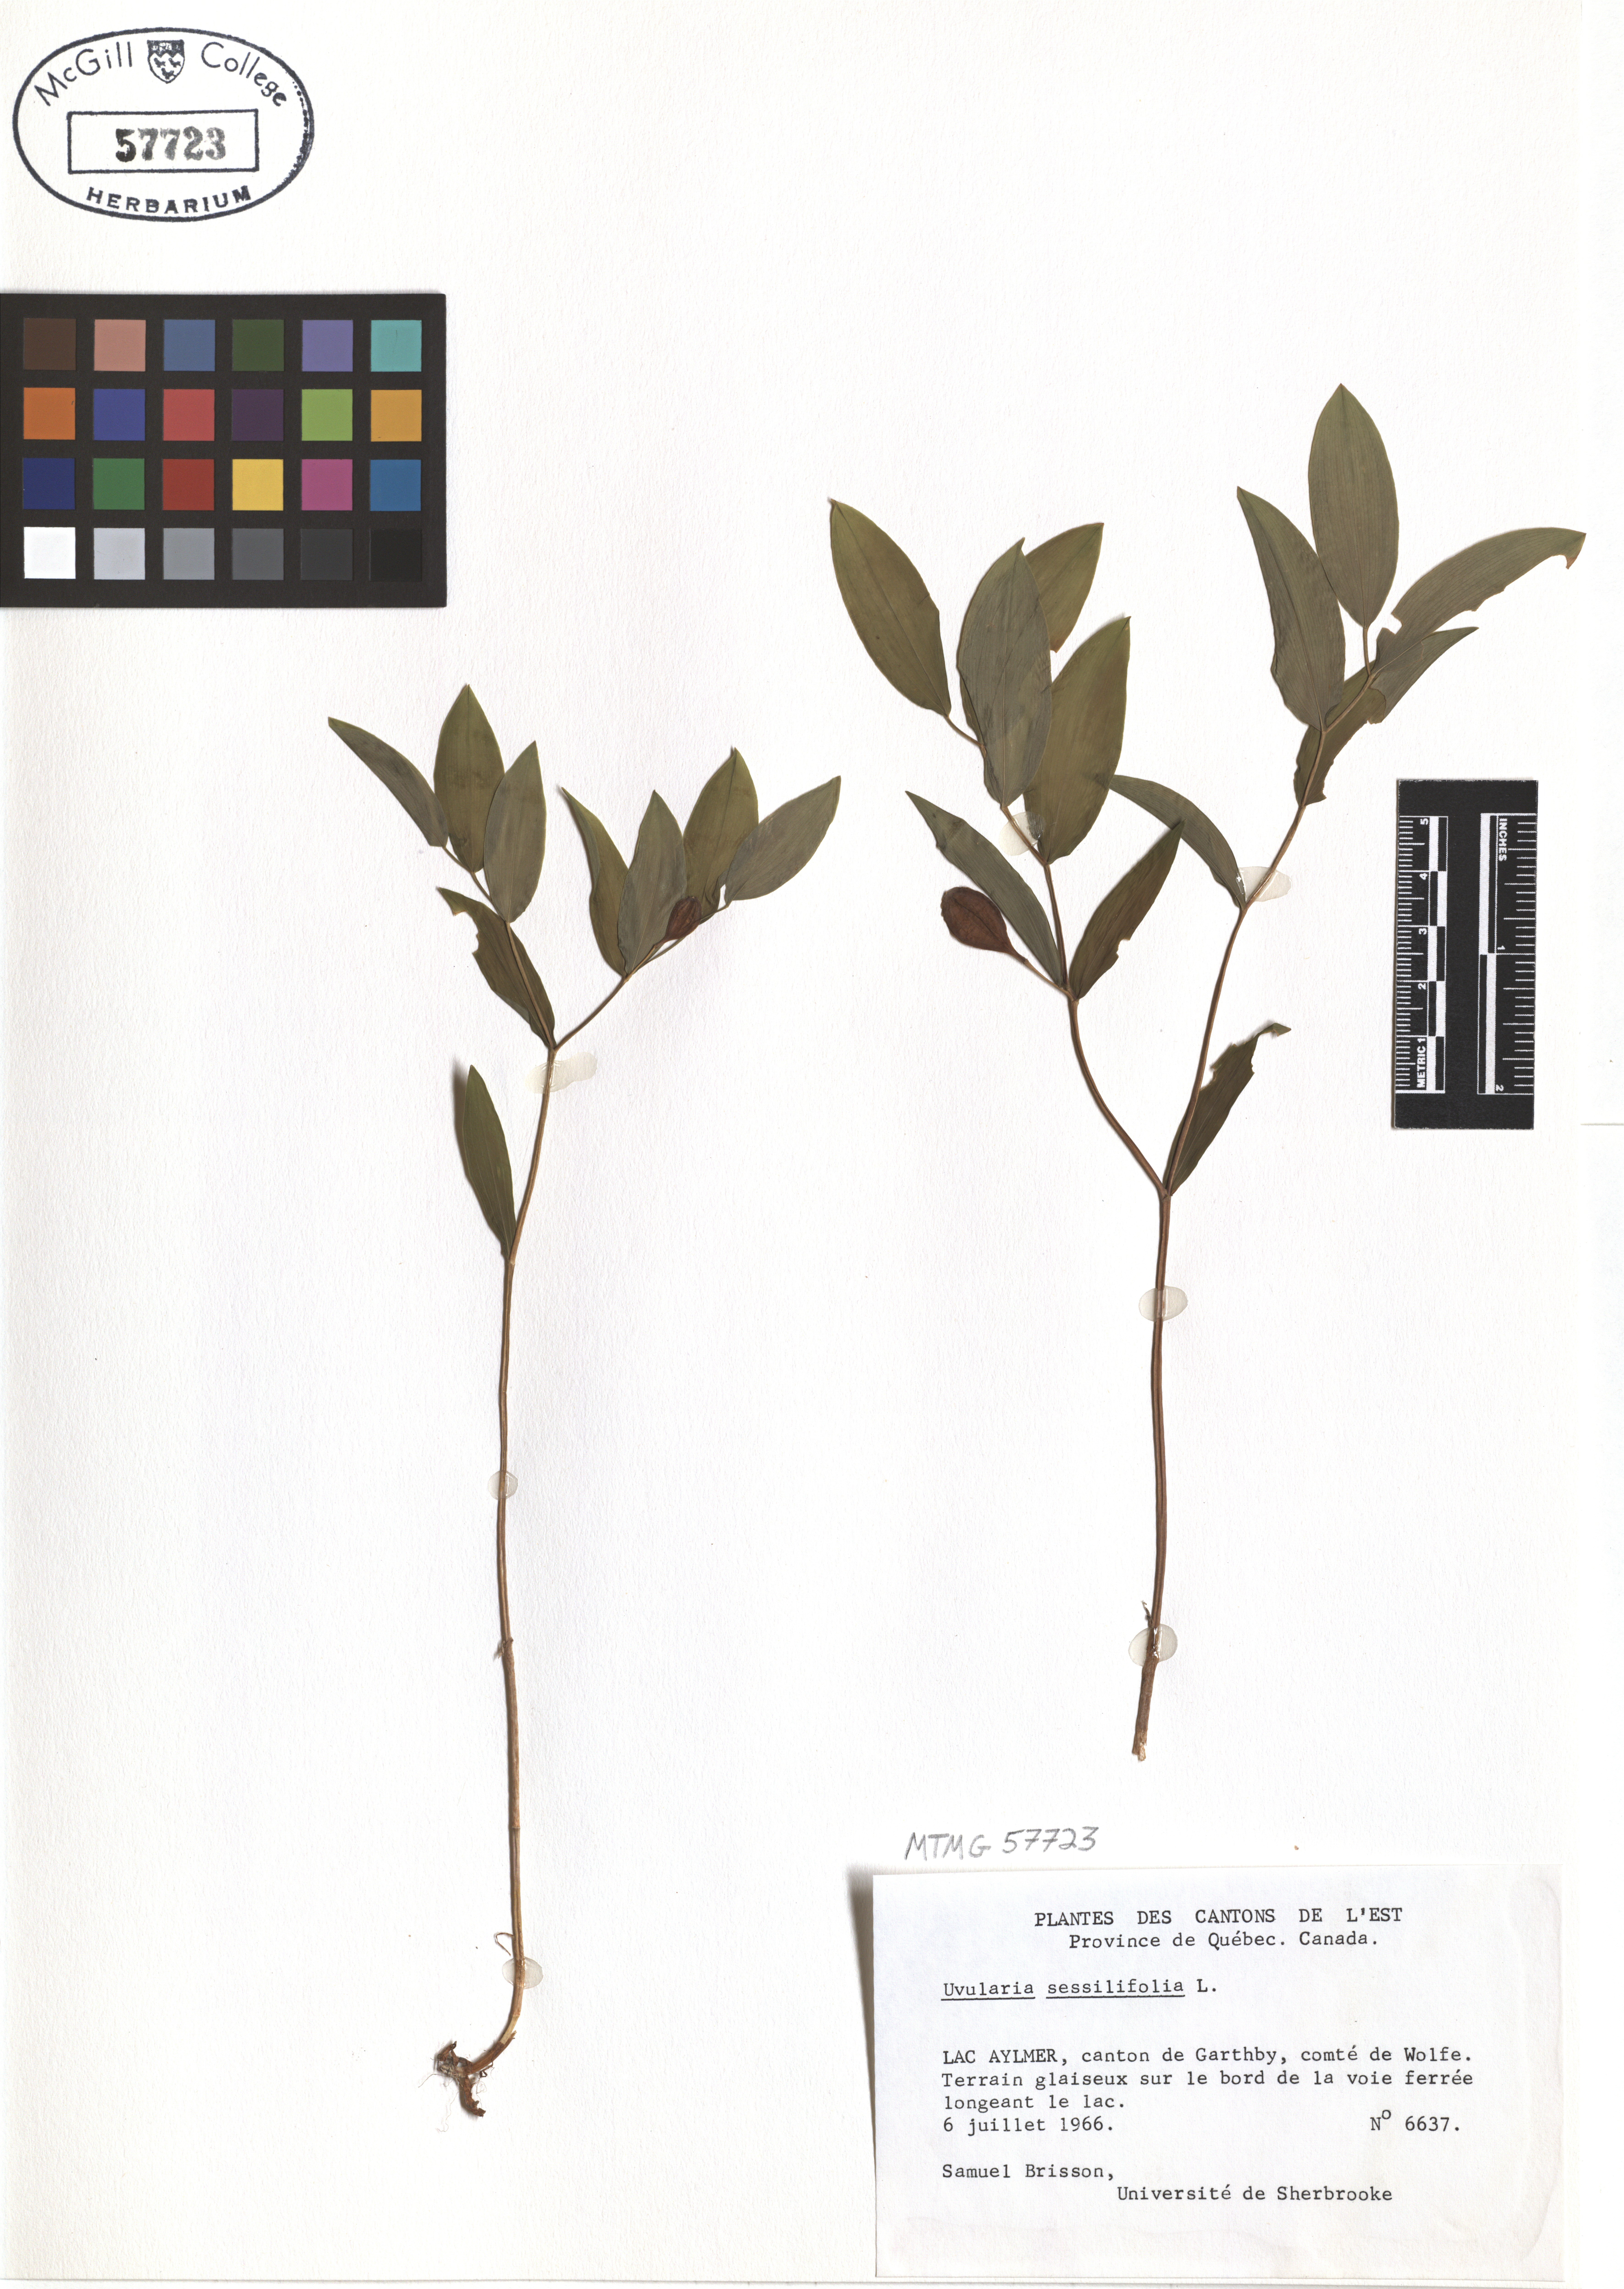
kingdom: Plantae
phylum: Tracheophyta
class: Liliopsida
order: Liliales
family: Colchicaceae
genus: Uvularia
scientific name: Uvularia sessilifolia
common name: Straw-lily
